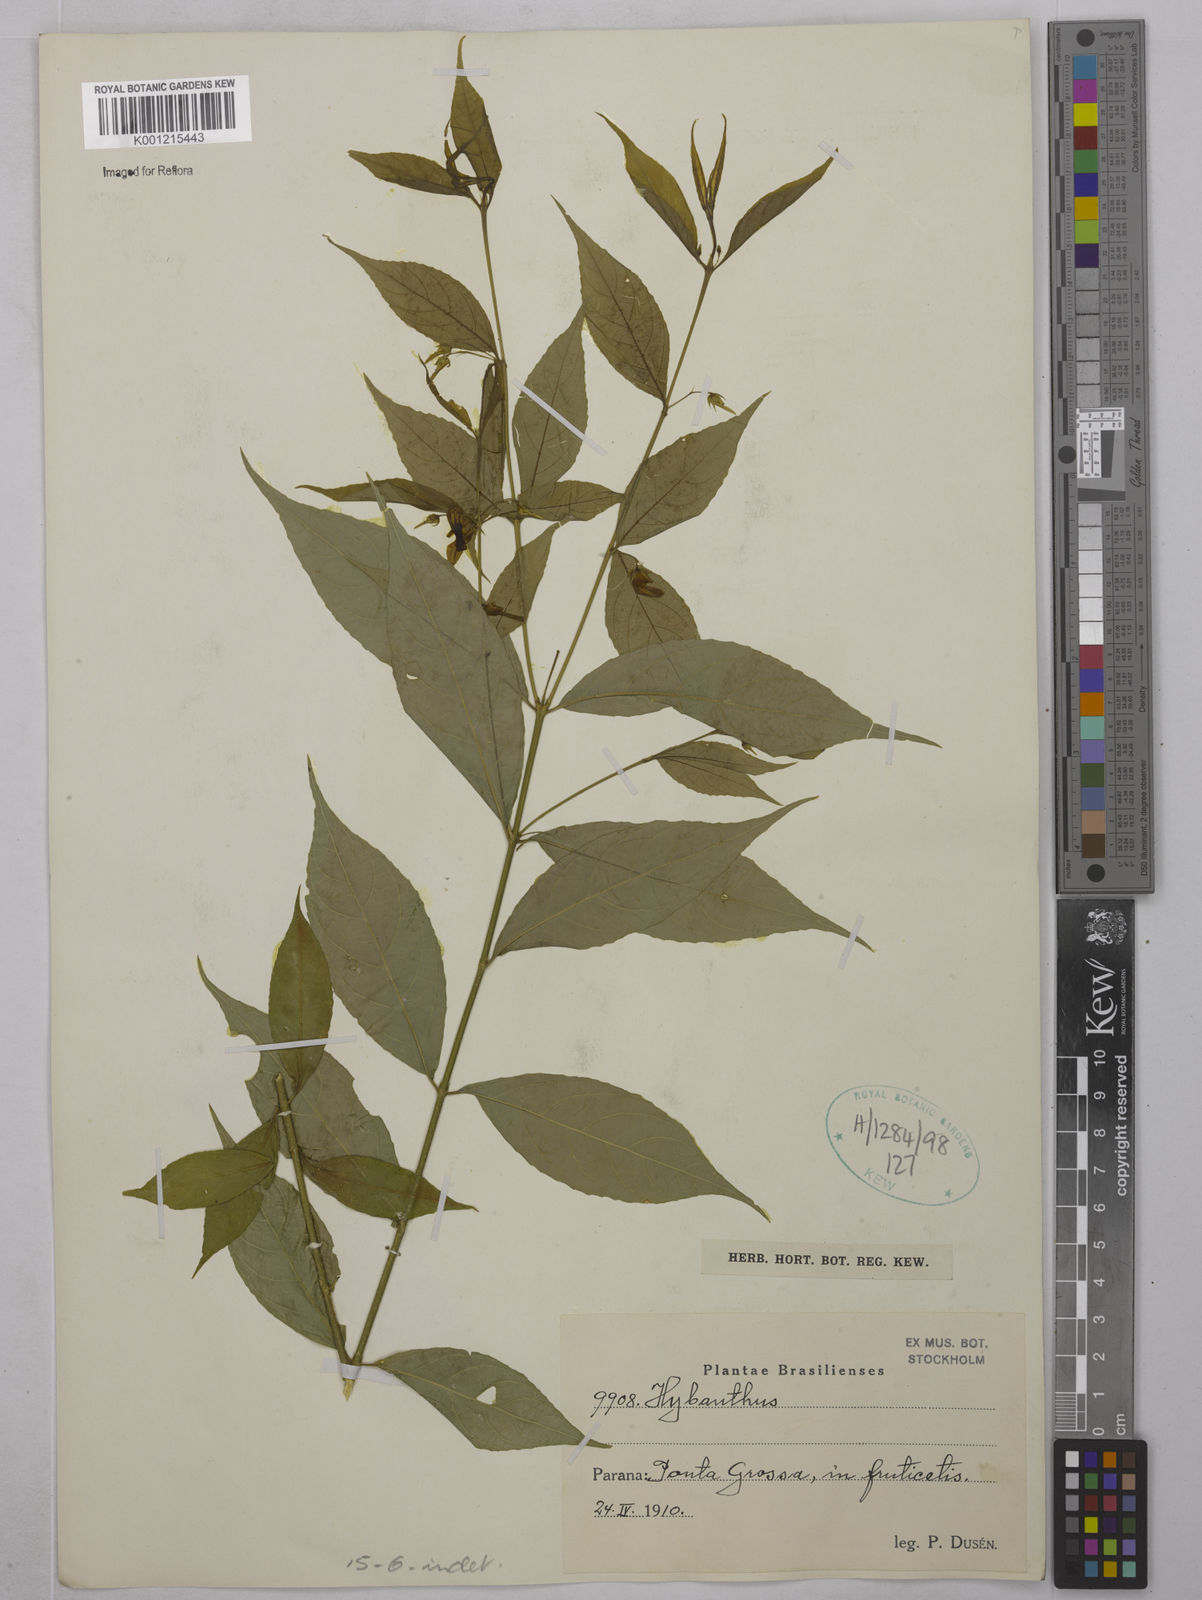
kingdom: Plantae
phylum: Tracheophyta
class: Magnoliopsida
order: Malpighiales
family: Violaceae
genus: Hybanthus
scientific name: Hybanthus
